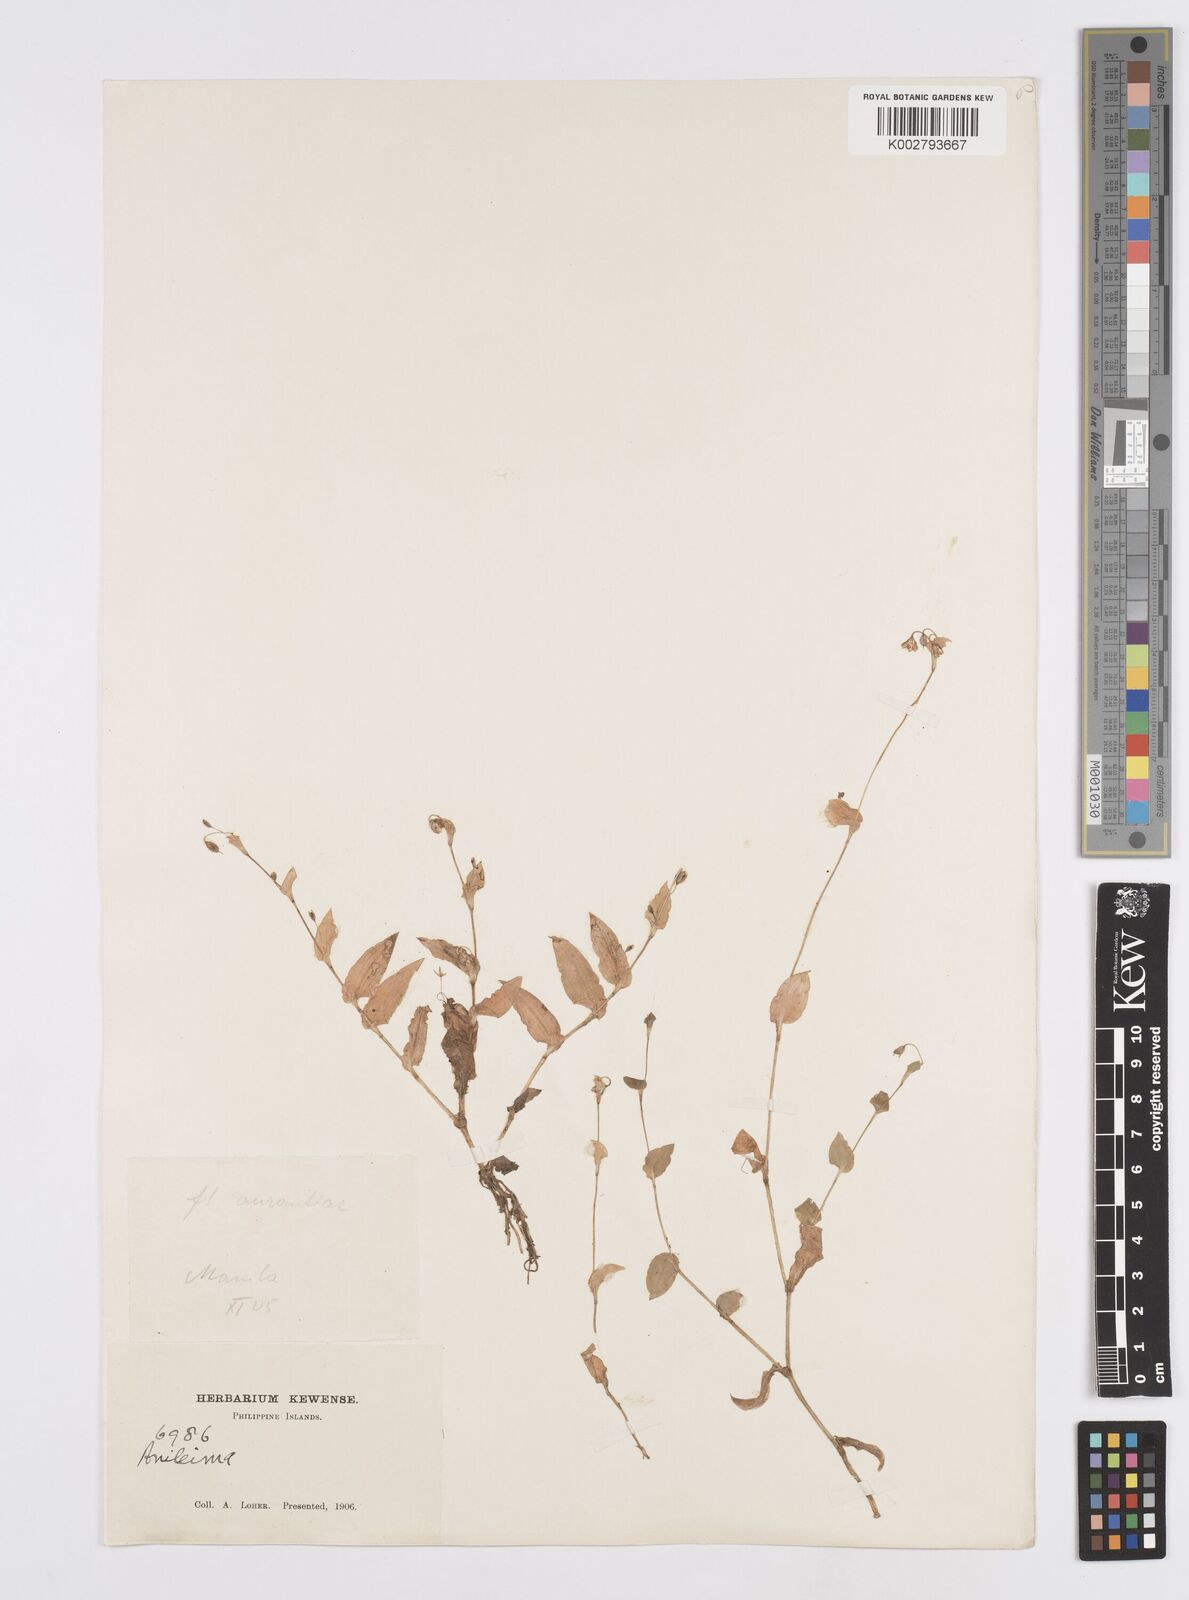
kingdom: Plantae
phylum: Tracheophyta
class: Liliopsida
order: Commelinales
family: Commelinaceae
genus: Murdannia
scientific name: Murdannia
